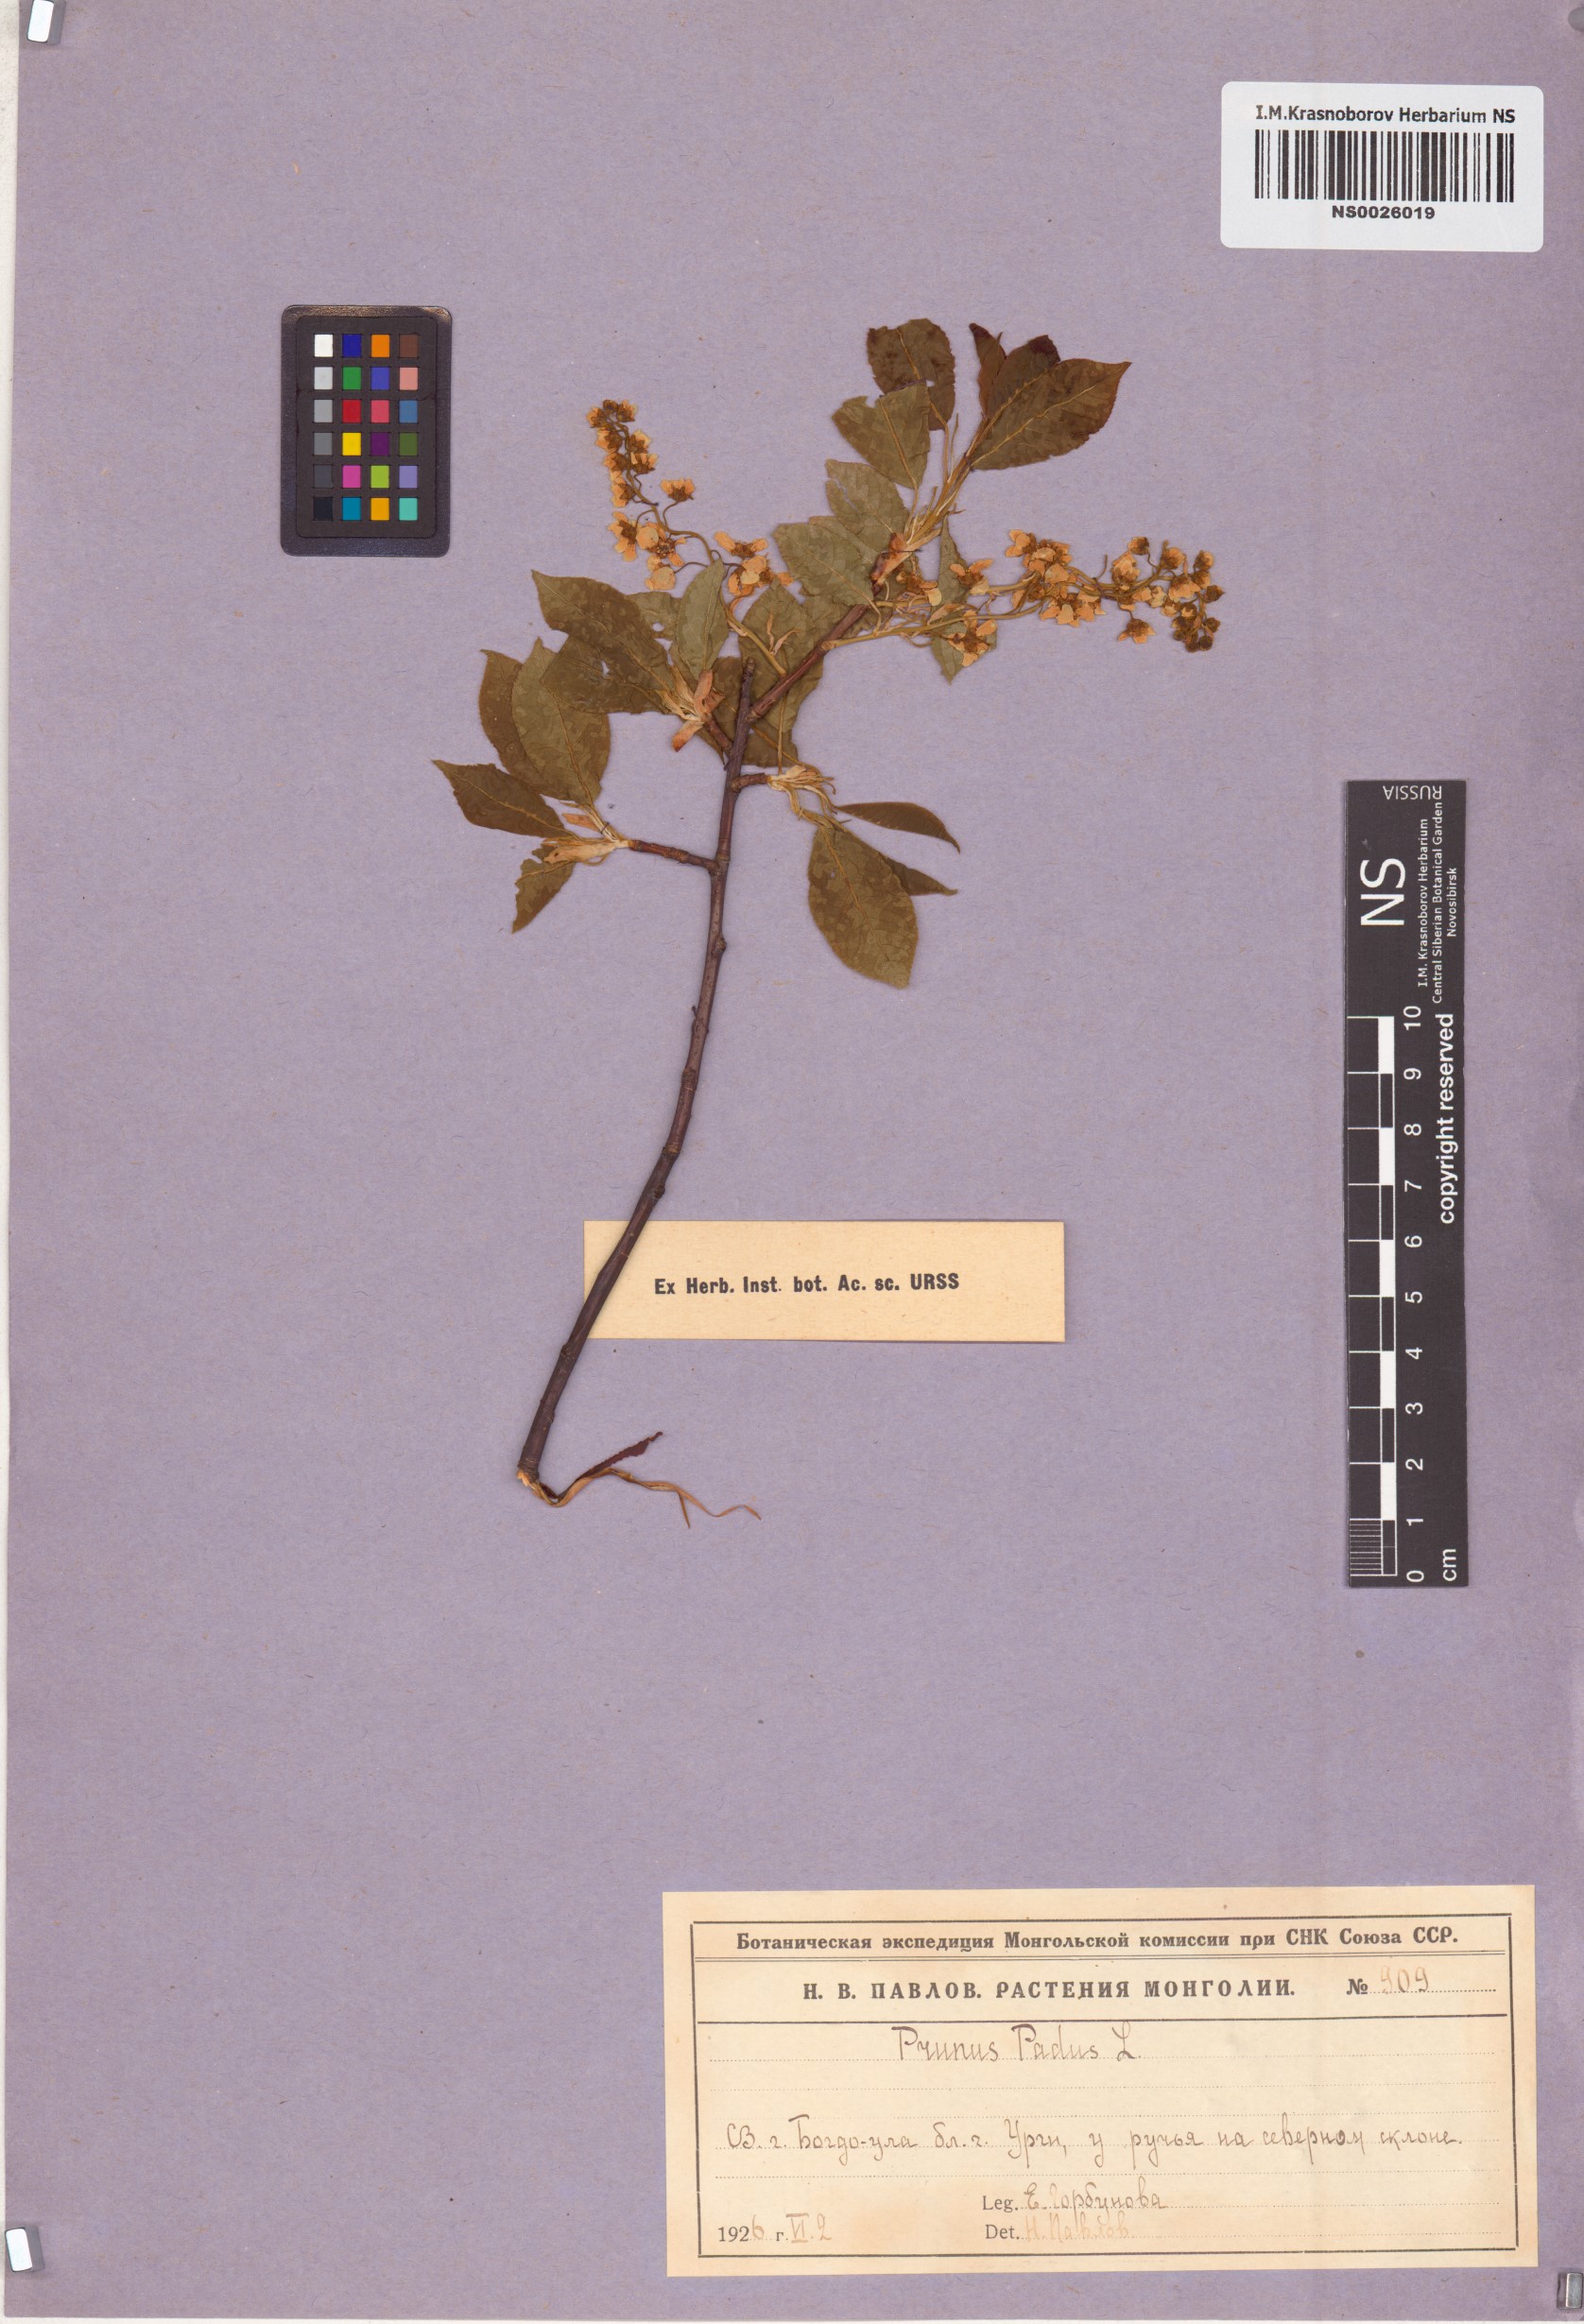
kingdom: Plantae
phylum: Tracheophyta
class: Magnoliopsida
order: Rosales
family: Rosaceae
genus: Prunus
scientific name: Prunus padus
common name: Bird cherry
